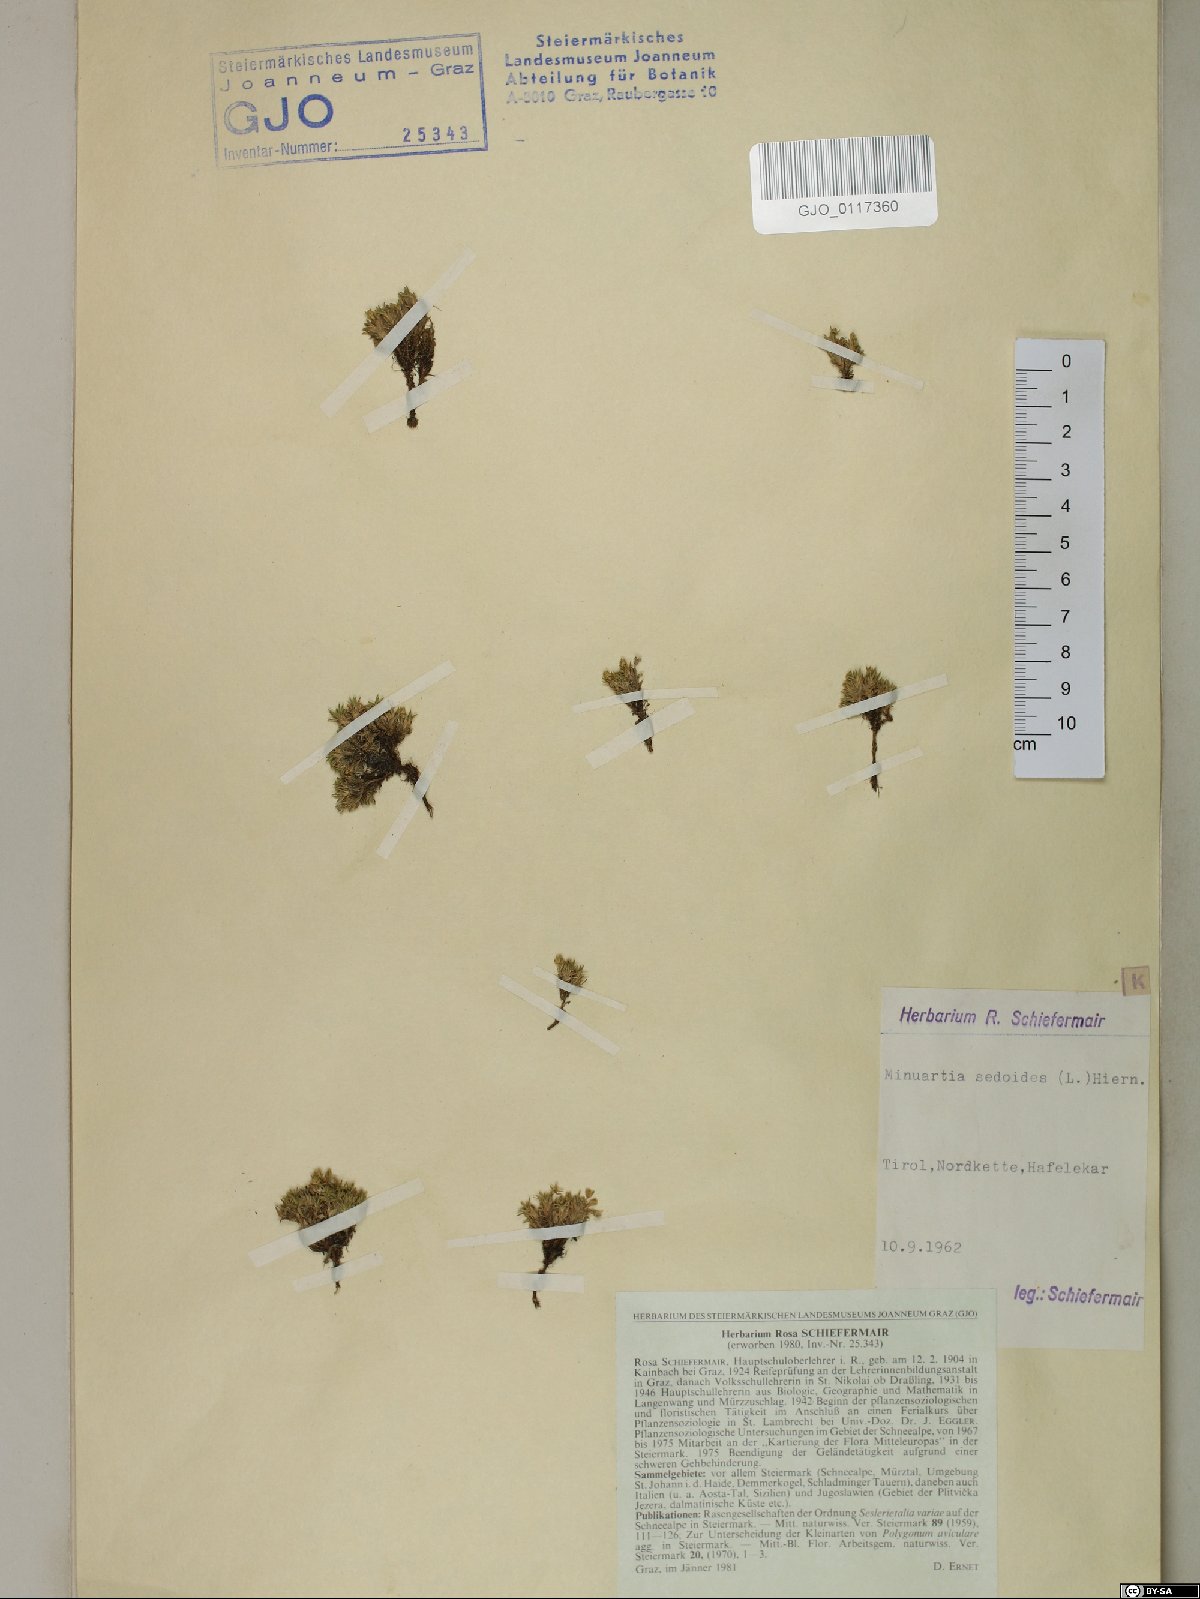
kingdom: Plantae
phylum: Tracheophyta
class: Magnoliopsida
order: Caryophyllales
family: Caryophyllaceae
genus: Cherleria
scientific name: Cherleria sedoides
